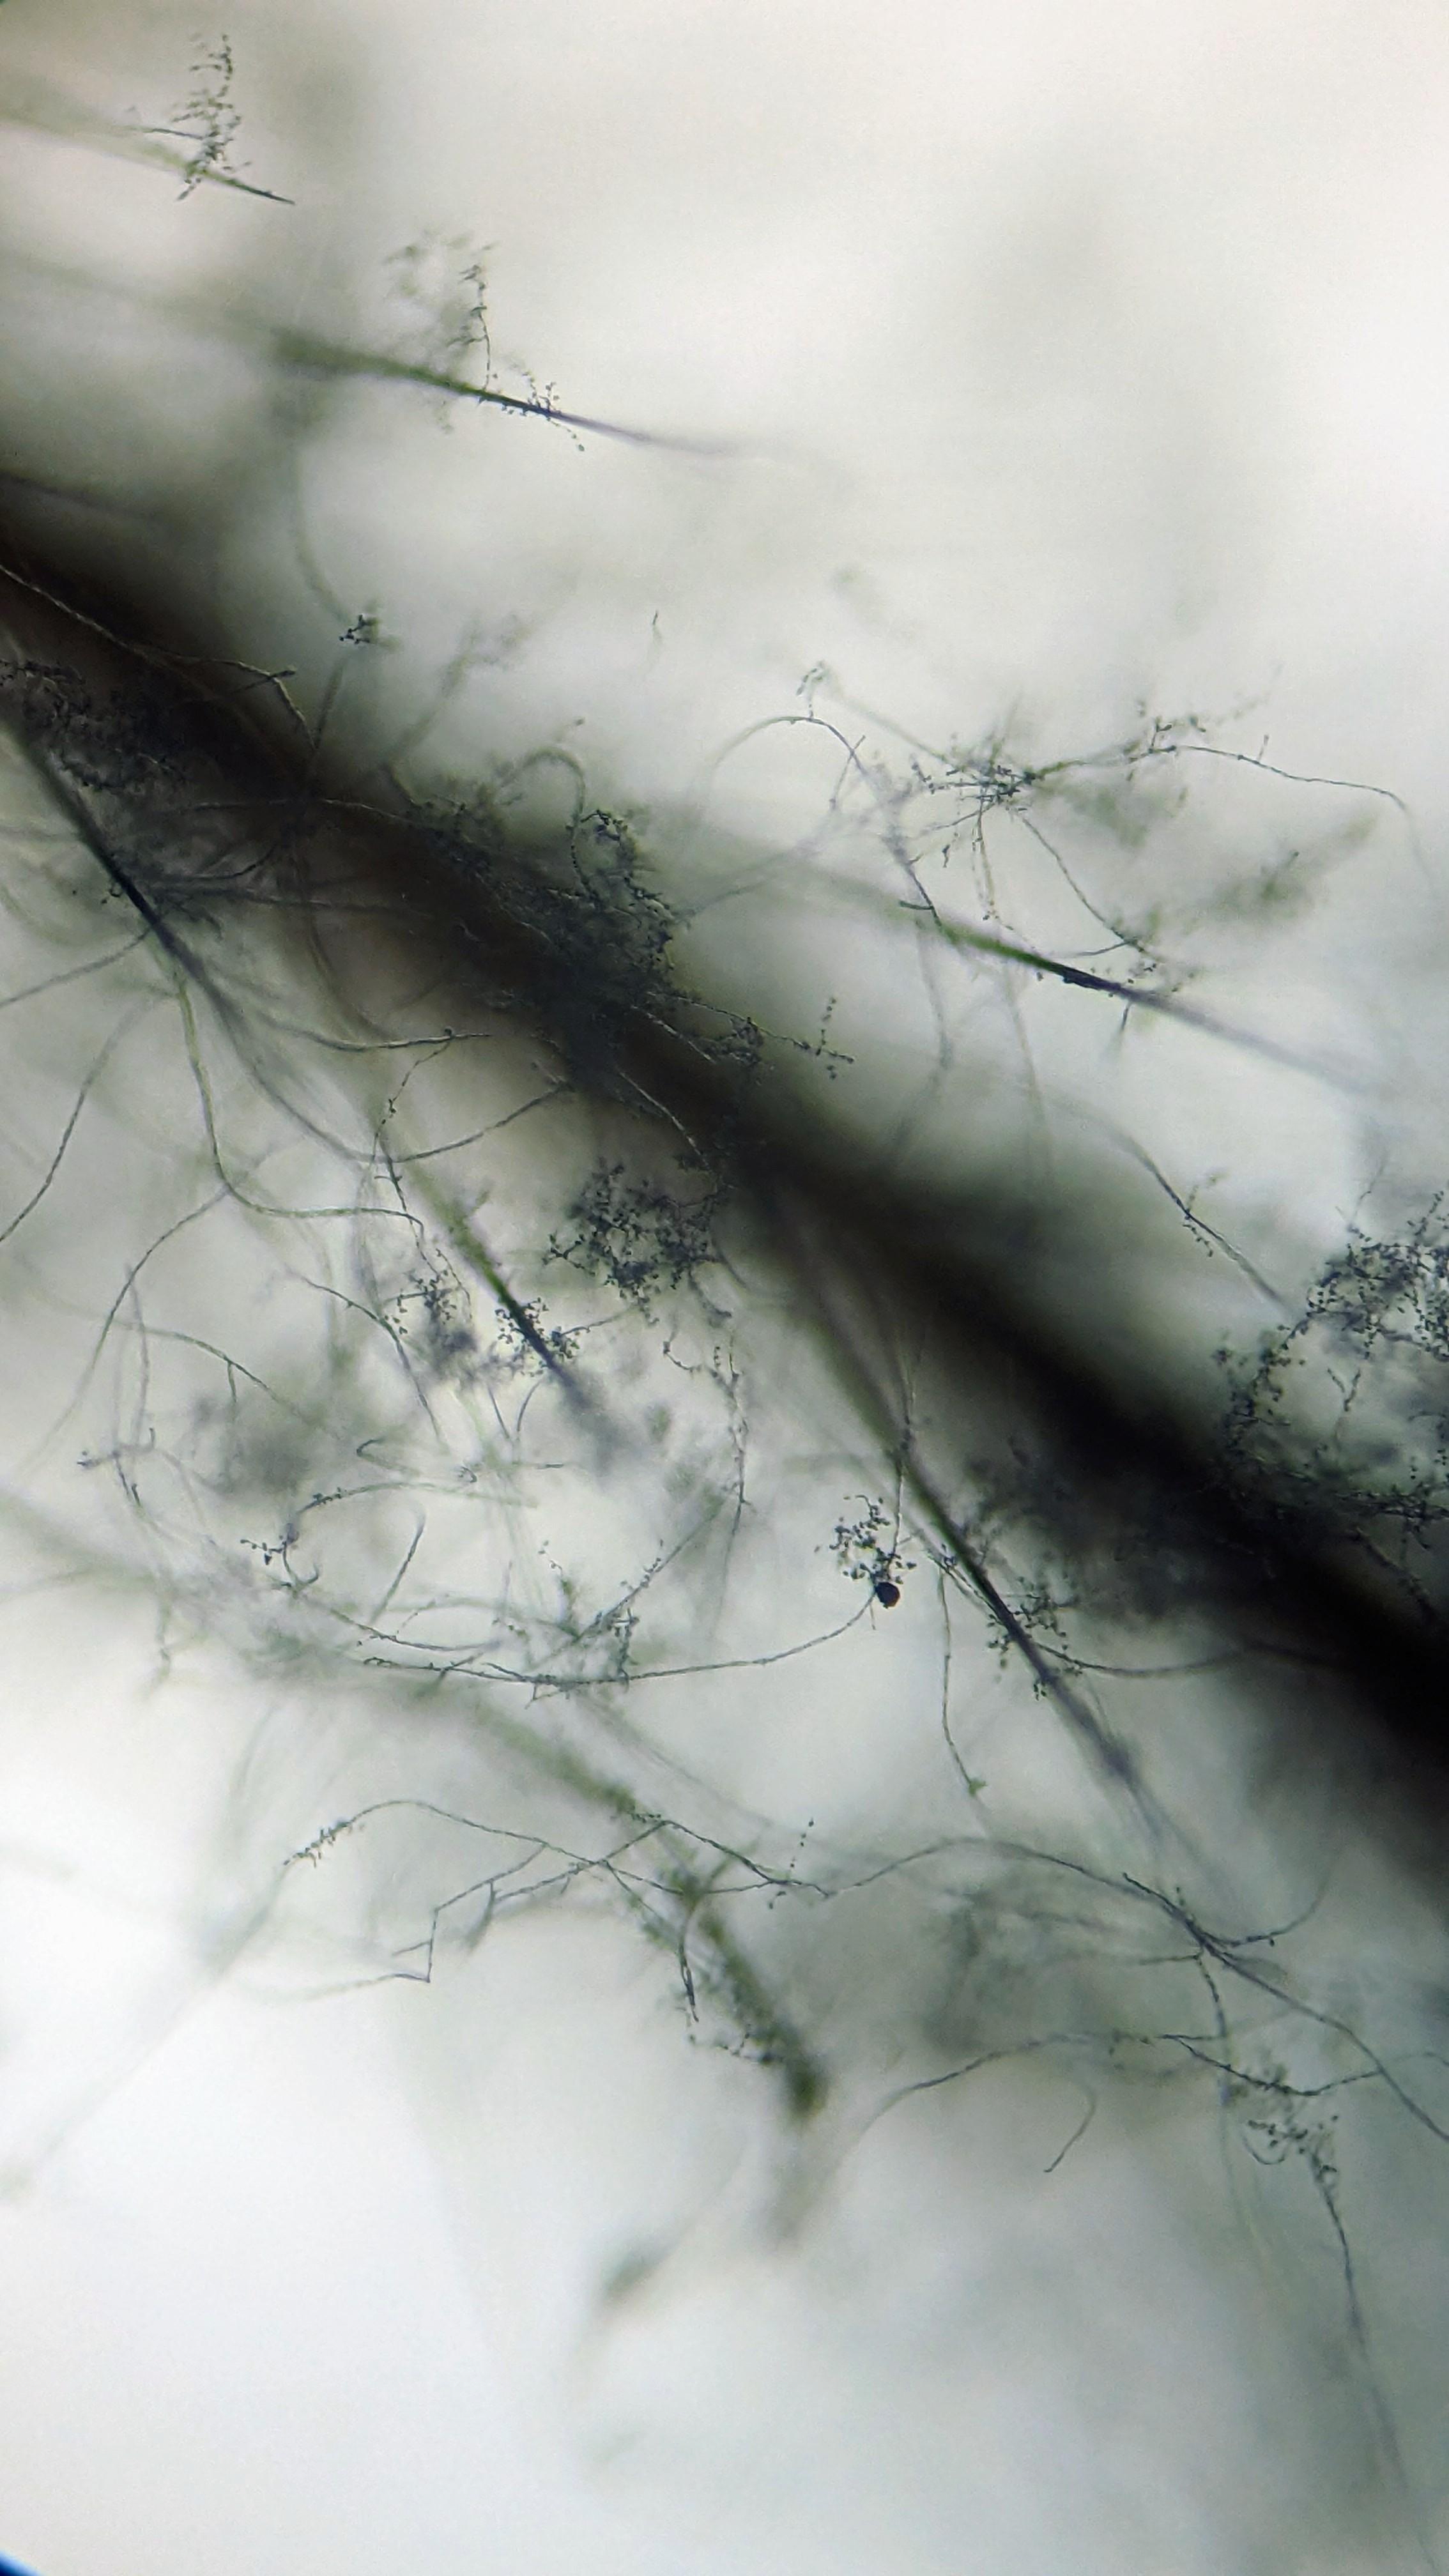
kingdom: Fungi
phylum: Ascomycota
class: Sordariomycetes
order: Hypocreales
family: Cordycipitaceae
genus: Lecanicillium
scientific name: Lecanicillium tenuipes
